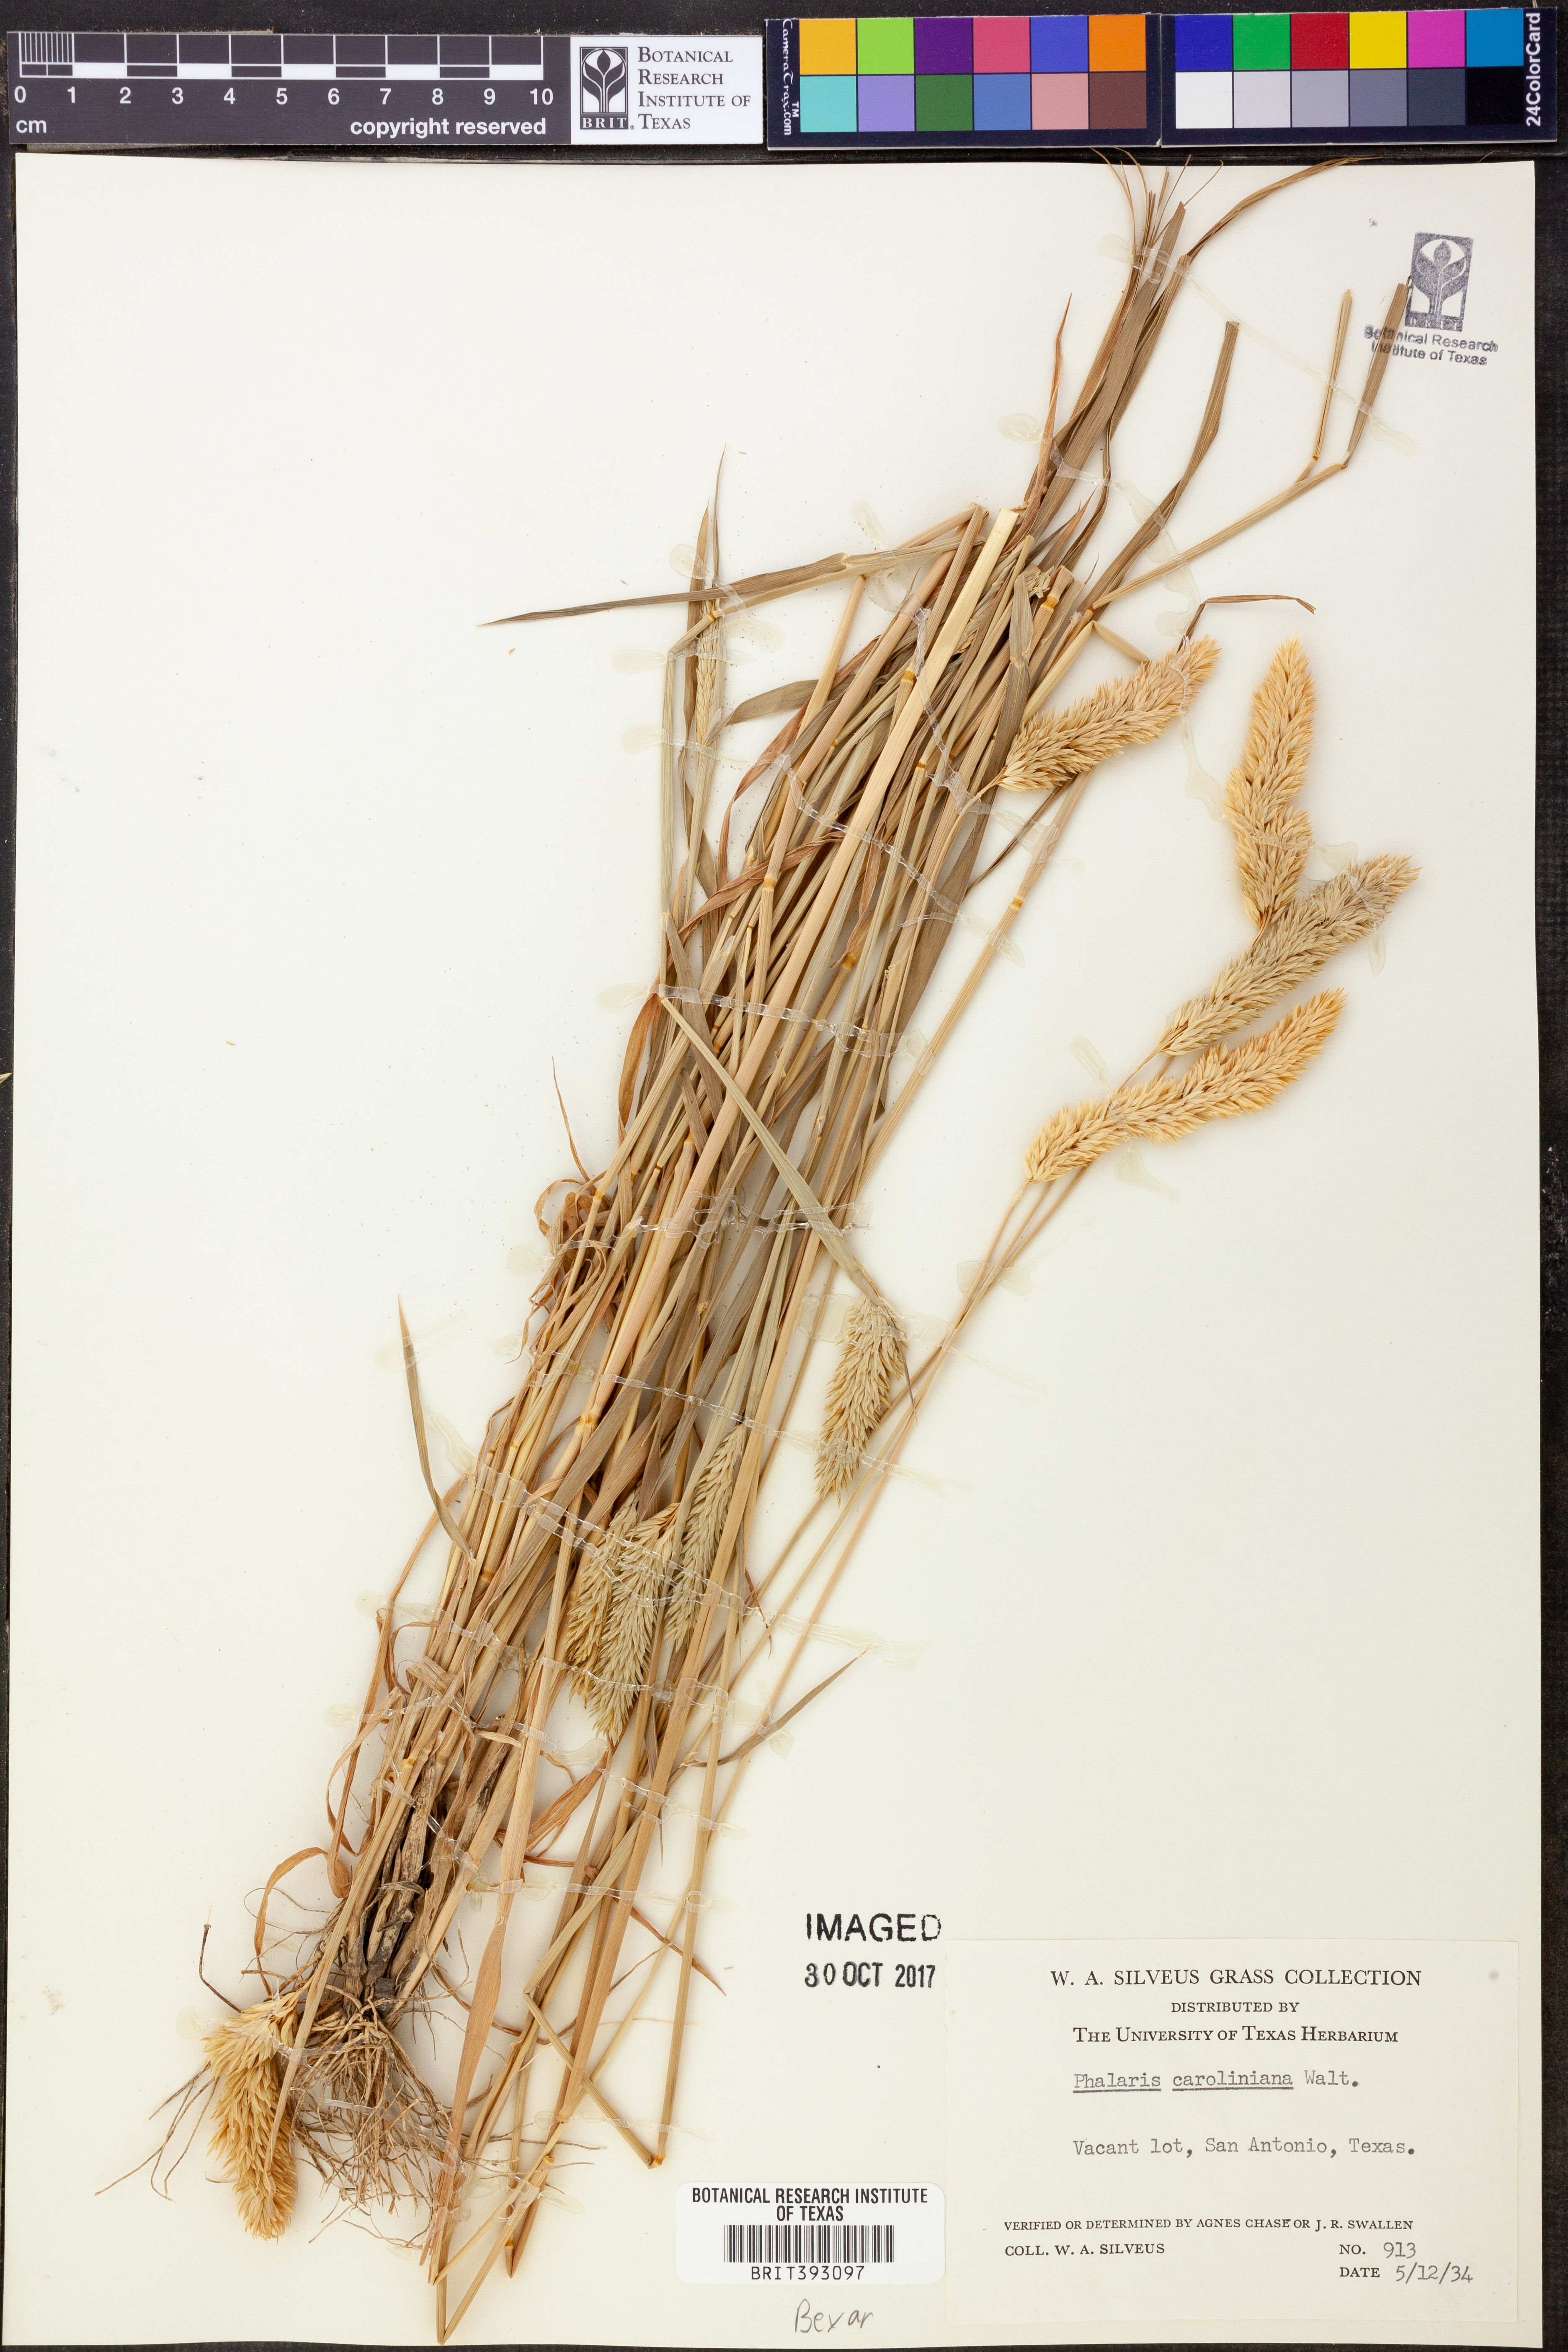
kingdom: Plantae
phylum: Tracheophyta
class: Liliopsida
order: Poales
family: Poaceae
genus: Phalaris
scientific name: Phalaris caroliniana
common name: May grass
